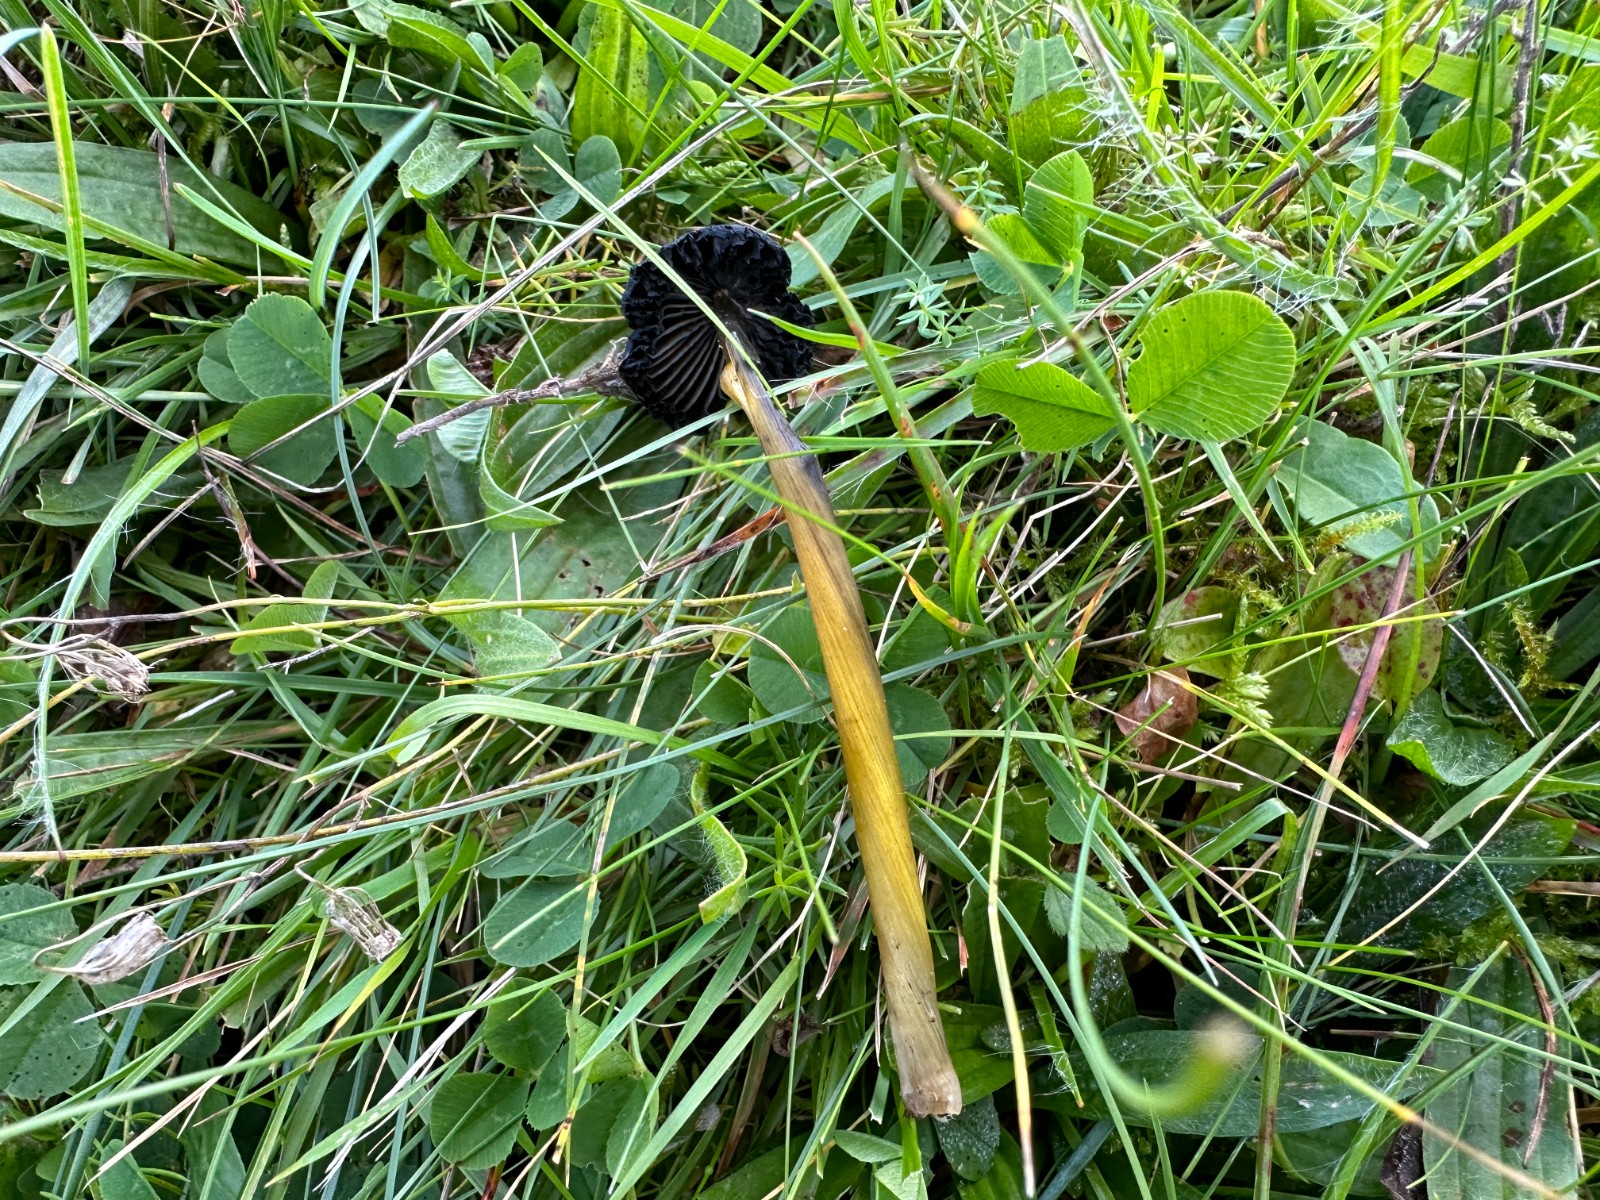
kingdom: Fungi
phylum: Basidiomycota
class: Agaricomycetes
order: Agaricales
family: Hygrophoraceae
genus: Hygrocybe
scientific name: Hygrocybe conica
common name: kegle-vokshat
